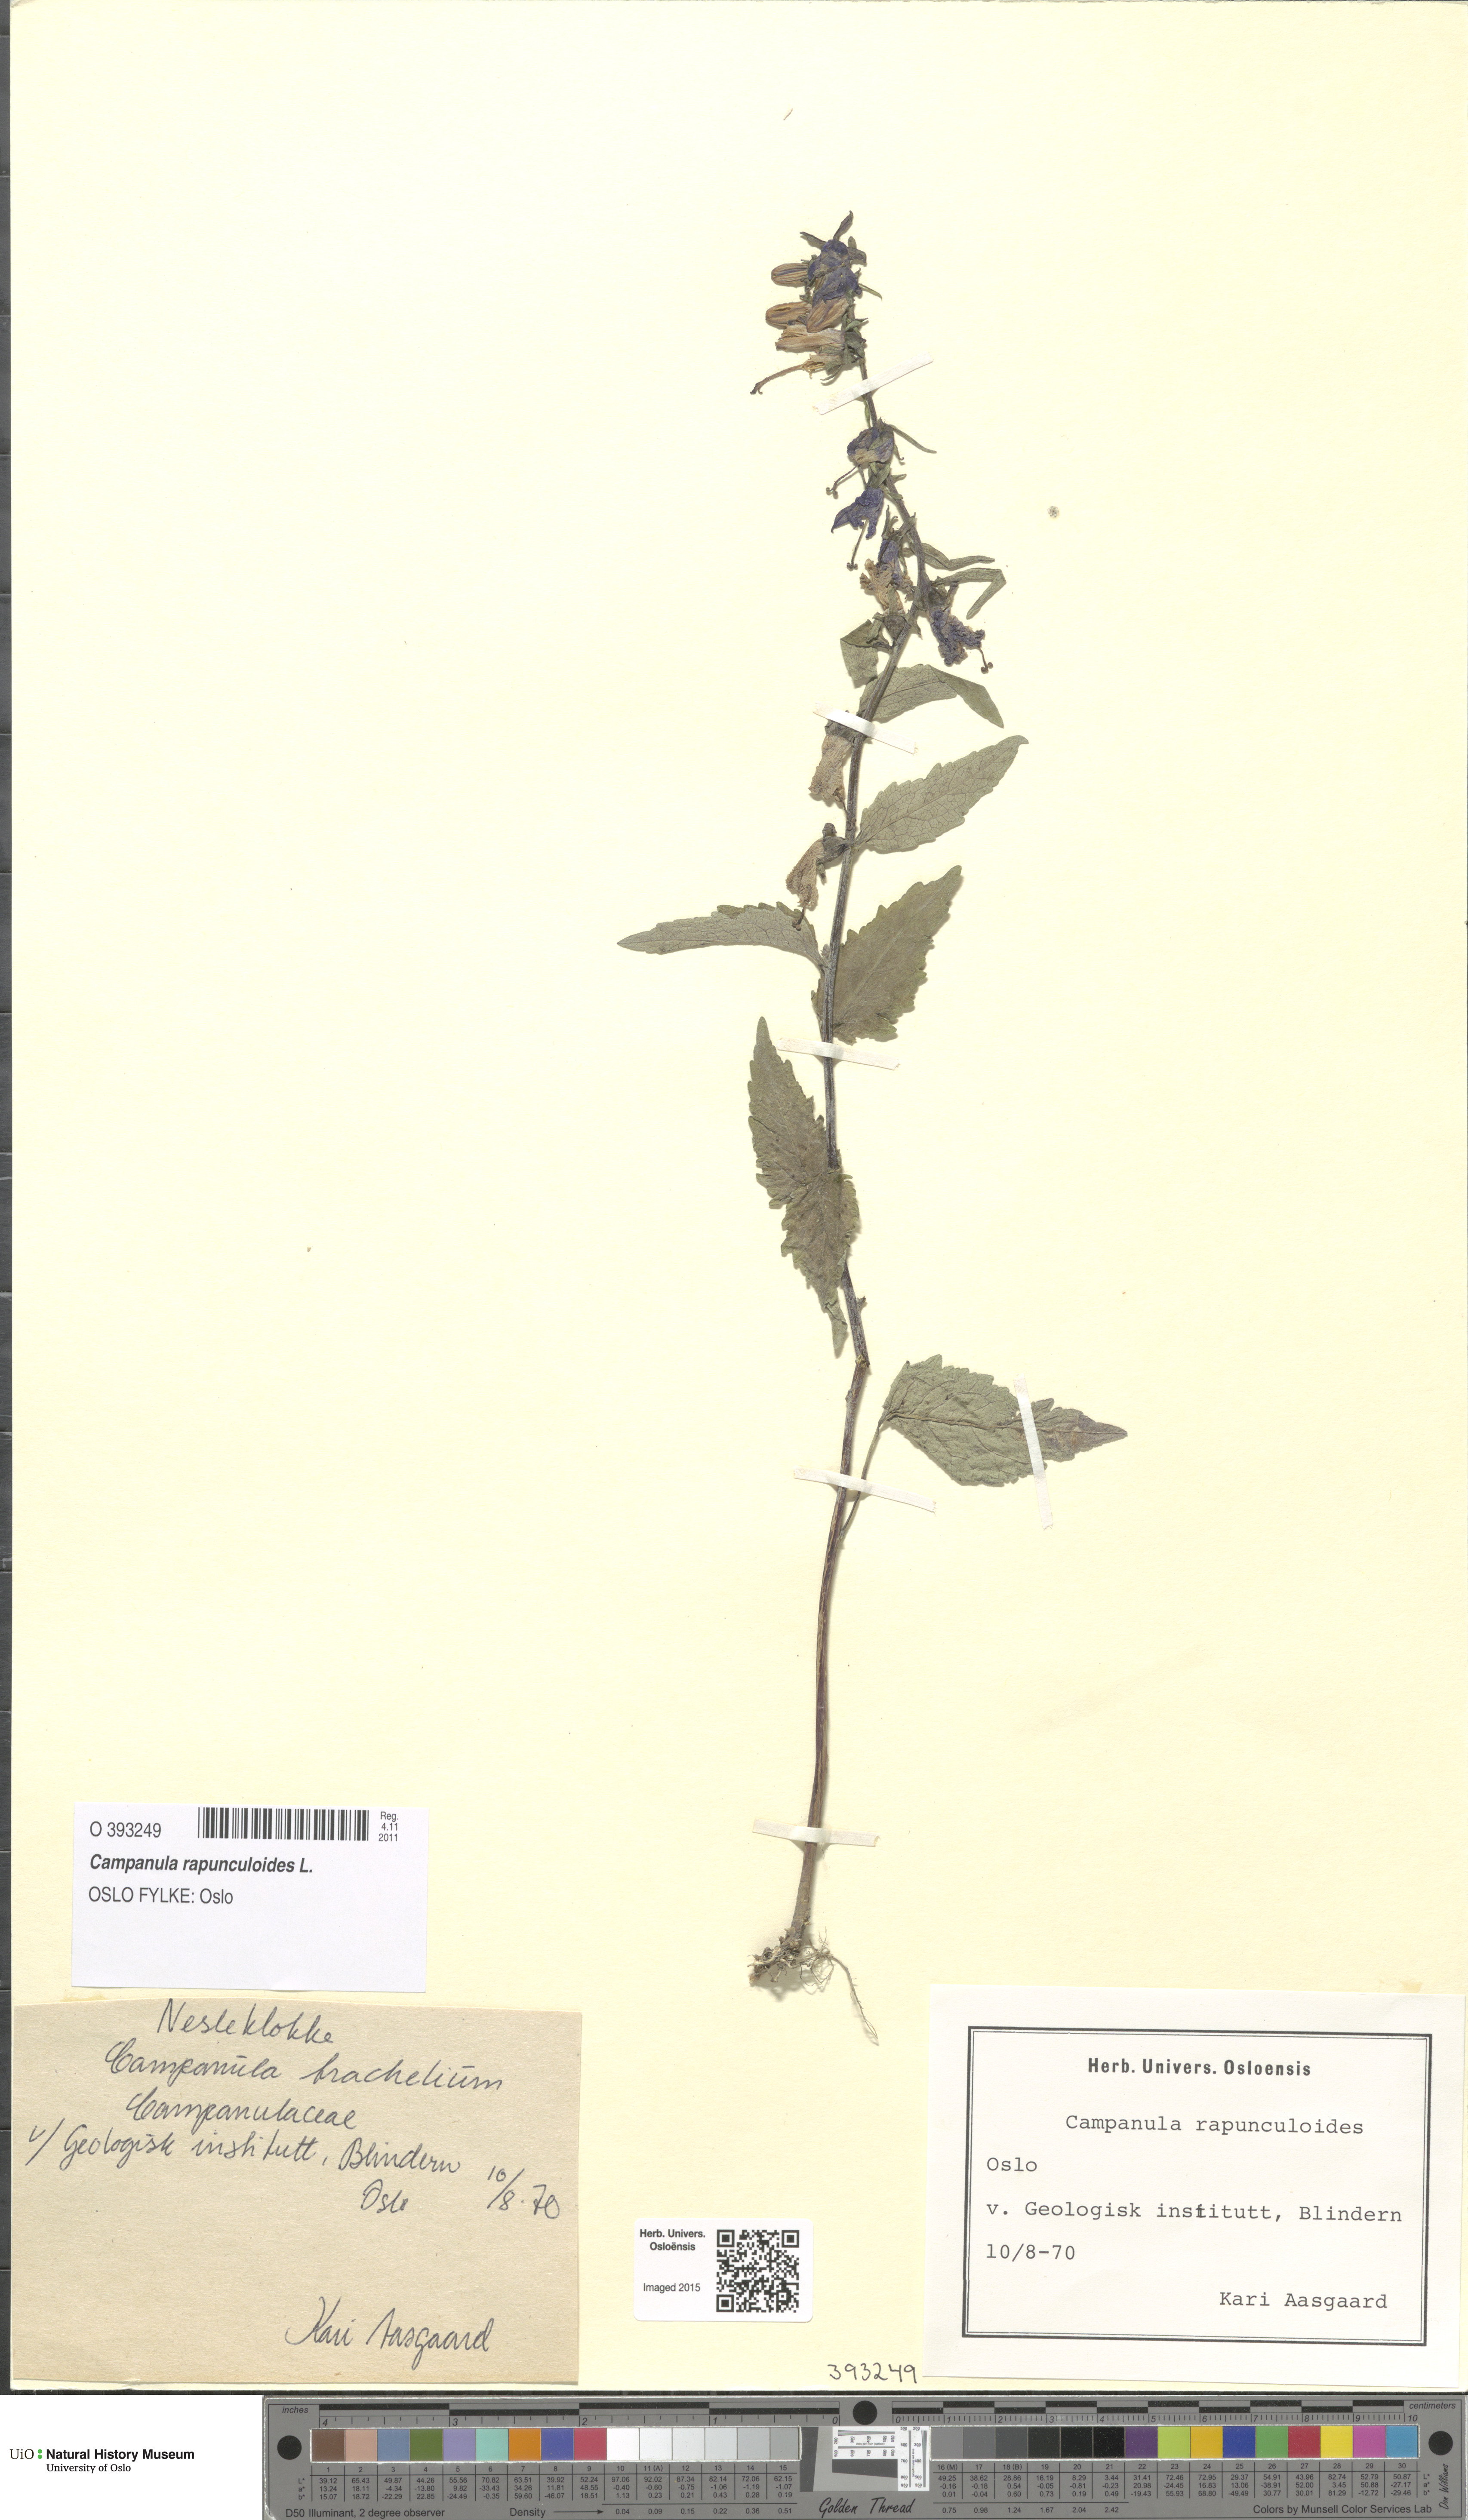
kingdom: Plantae
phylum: Tracheophyta
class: Magnoliopsida
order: Asterales
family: Campanulaceae
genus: Campanula
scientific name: Campanula rapunculoides
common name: Creeping bellflower
